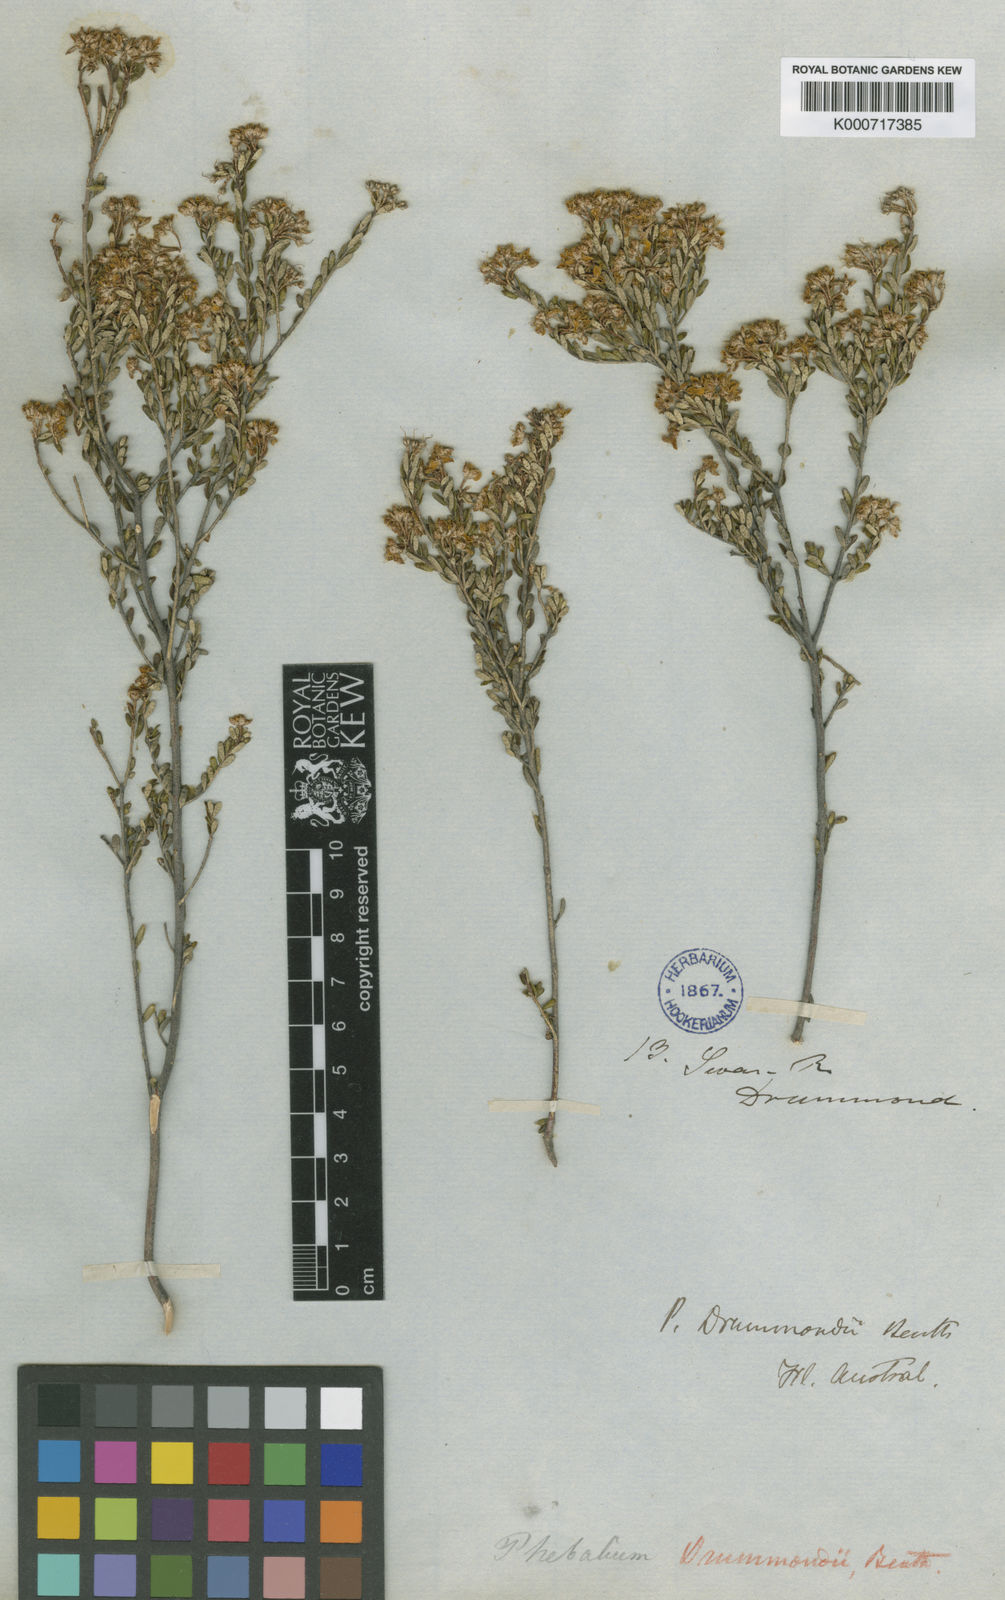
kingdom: Plantae
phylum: Tracheophyta
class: Magnoliopsida
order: Sapindales
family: Rutaceae
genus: Phebalium
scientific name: Phebalium drummondii
